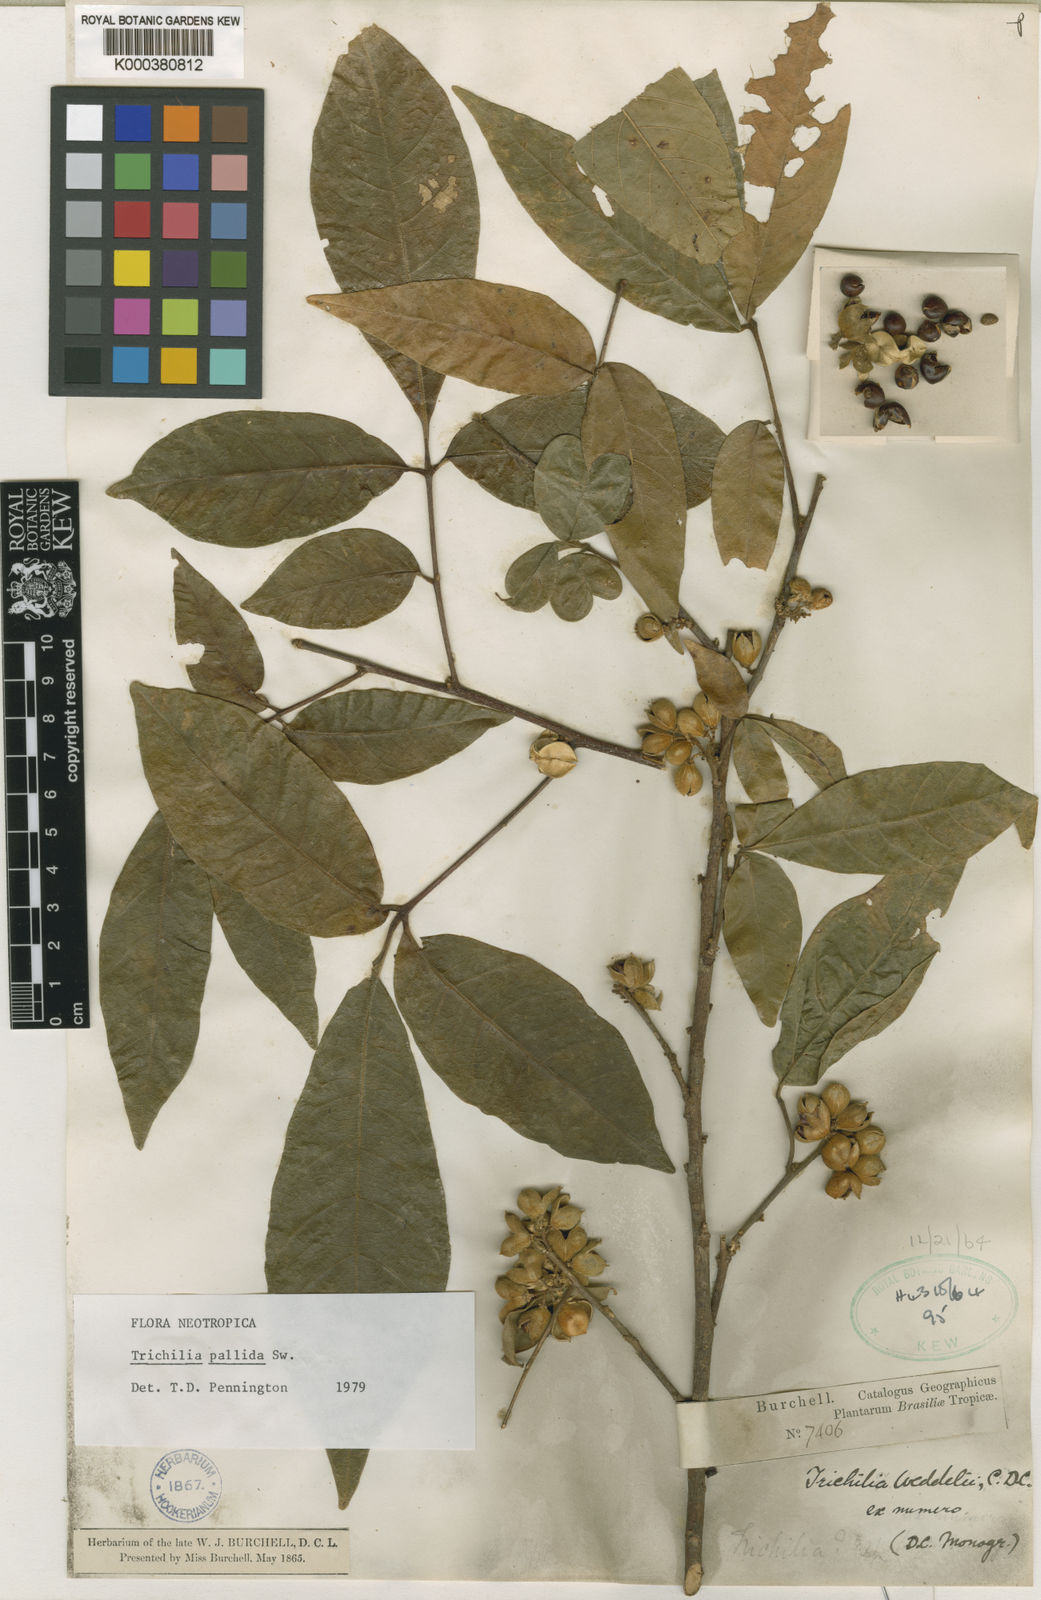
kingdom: Plantae
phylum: Tracheophyta
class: Magnoliopsida
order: Sapindales
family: Meliaceae
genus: Trichilia
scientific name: Trichilia pallida
